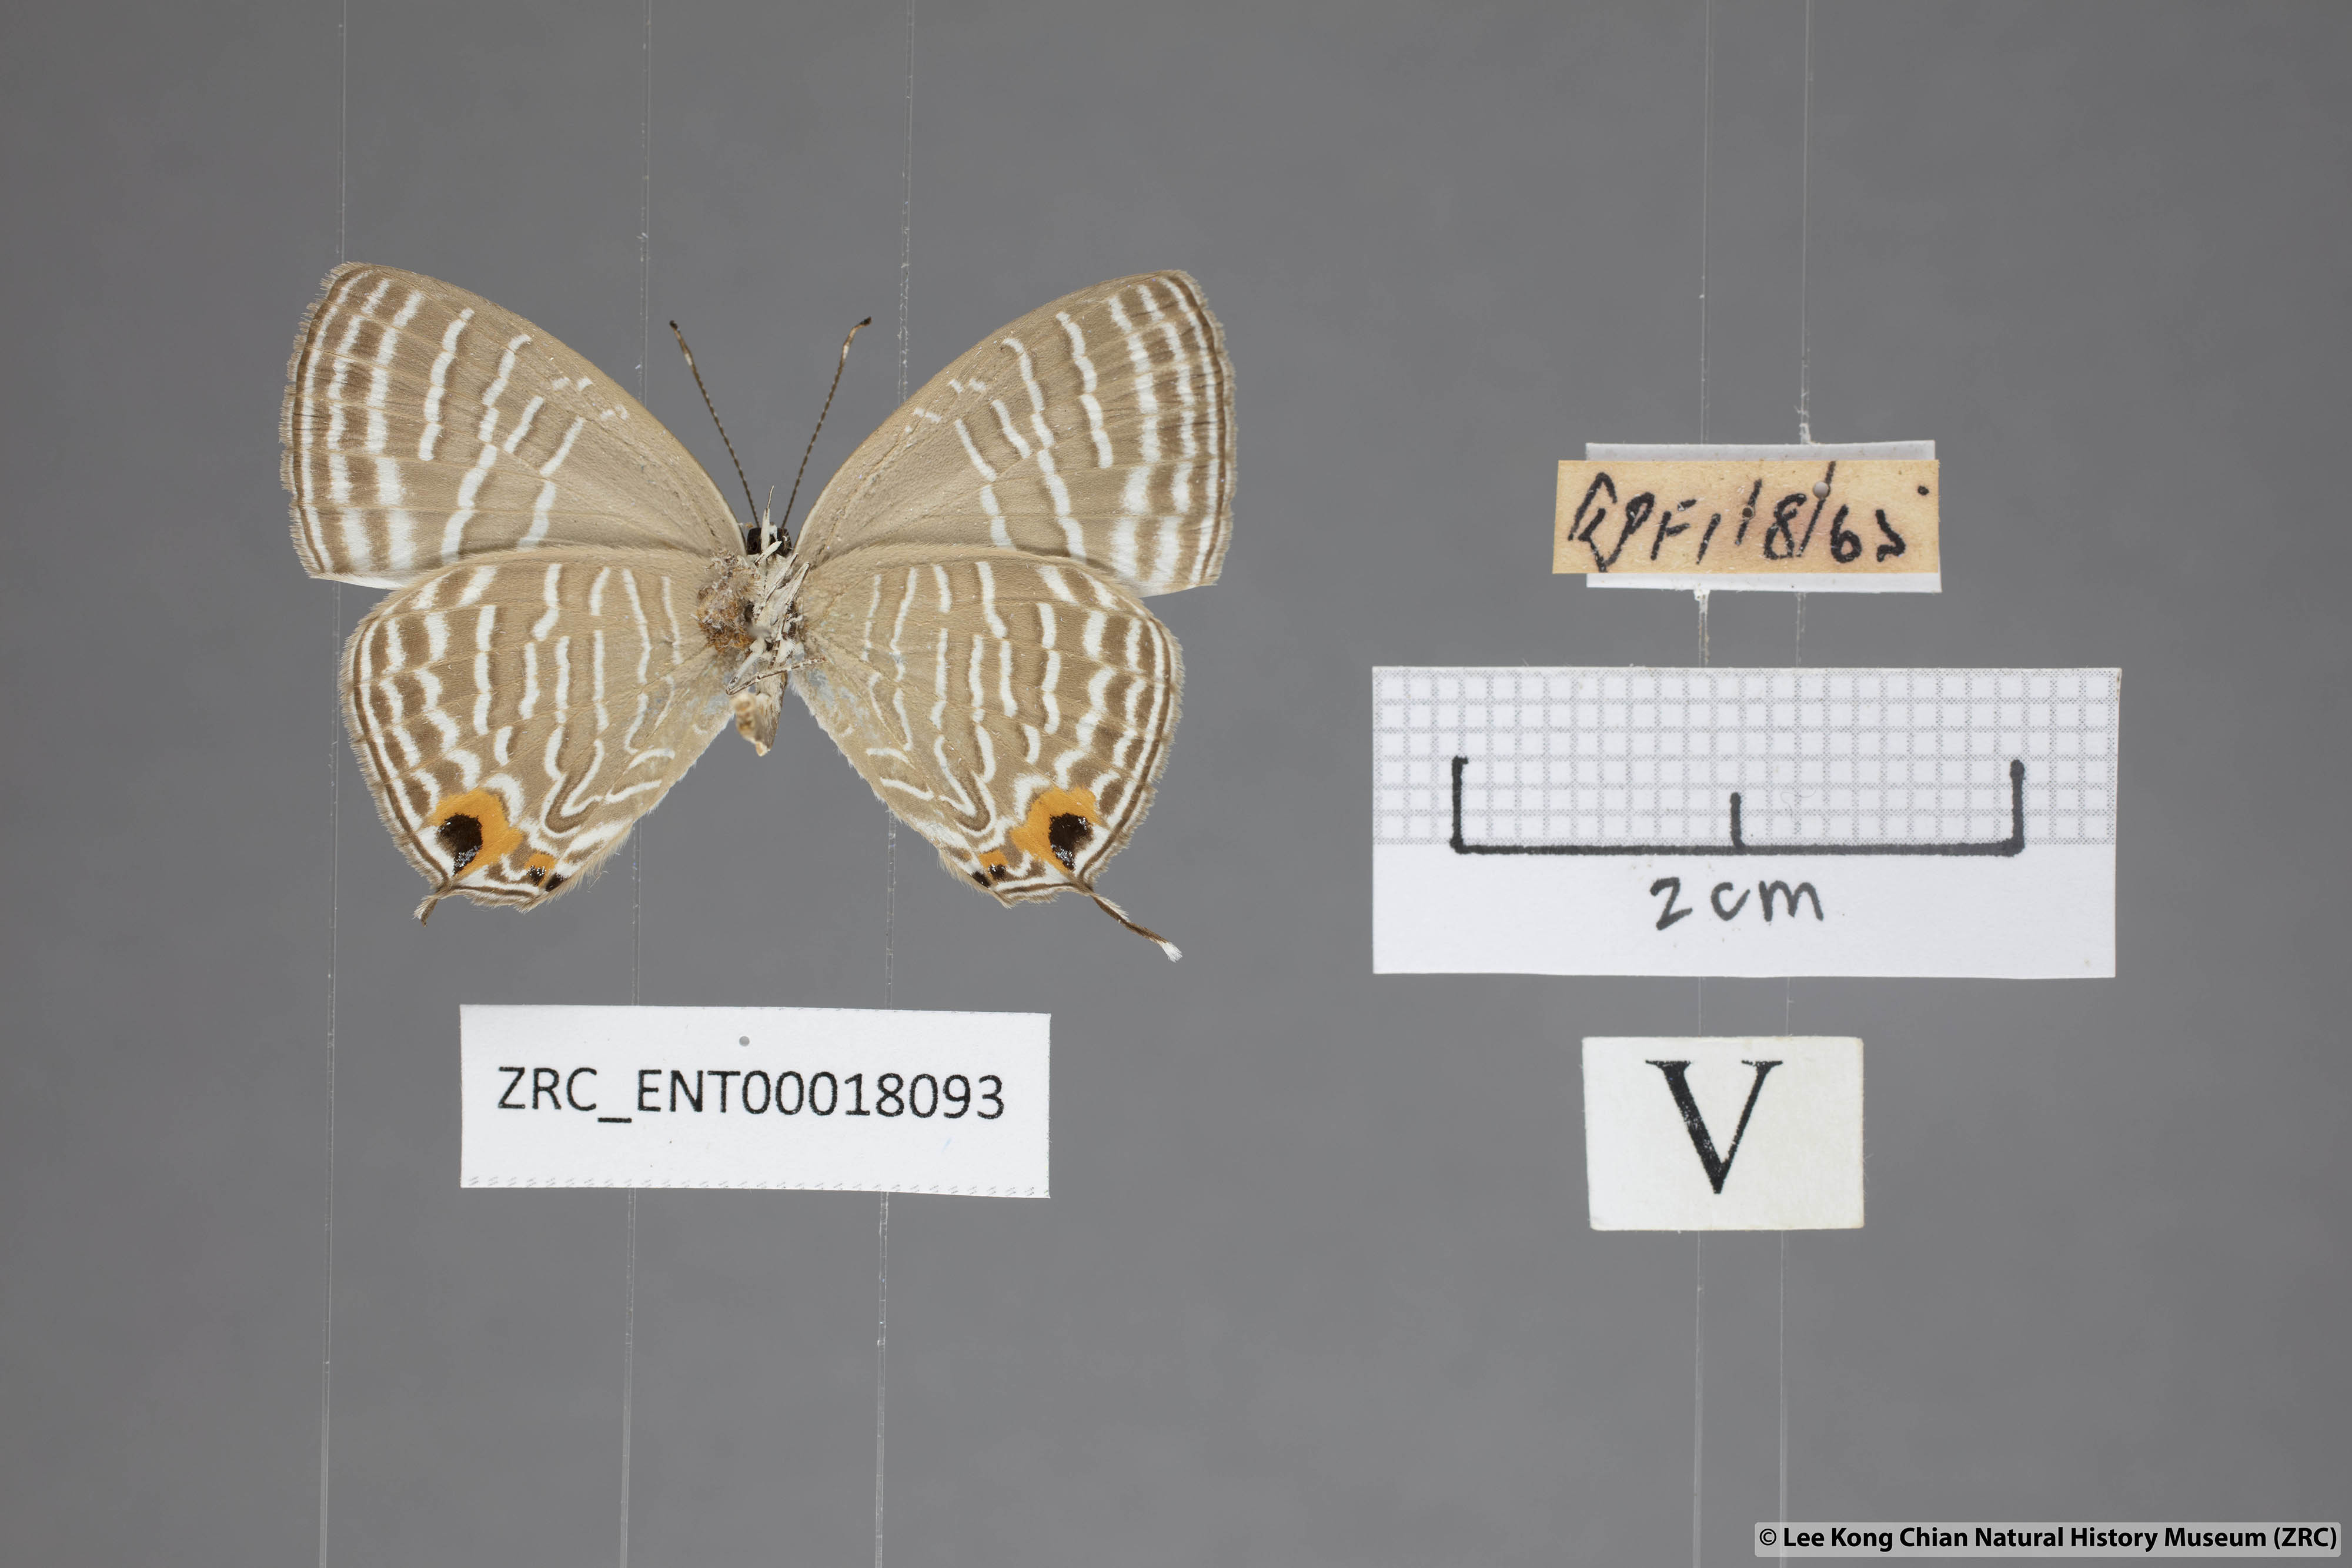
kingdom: Animalia
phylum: Arthropoda
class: Insecta
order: Lepidoptera
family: Lycaenidae
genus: Jamides
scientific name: Jamides celeno
